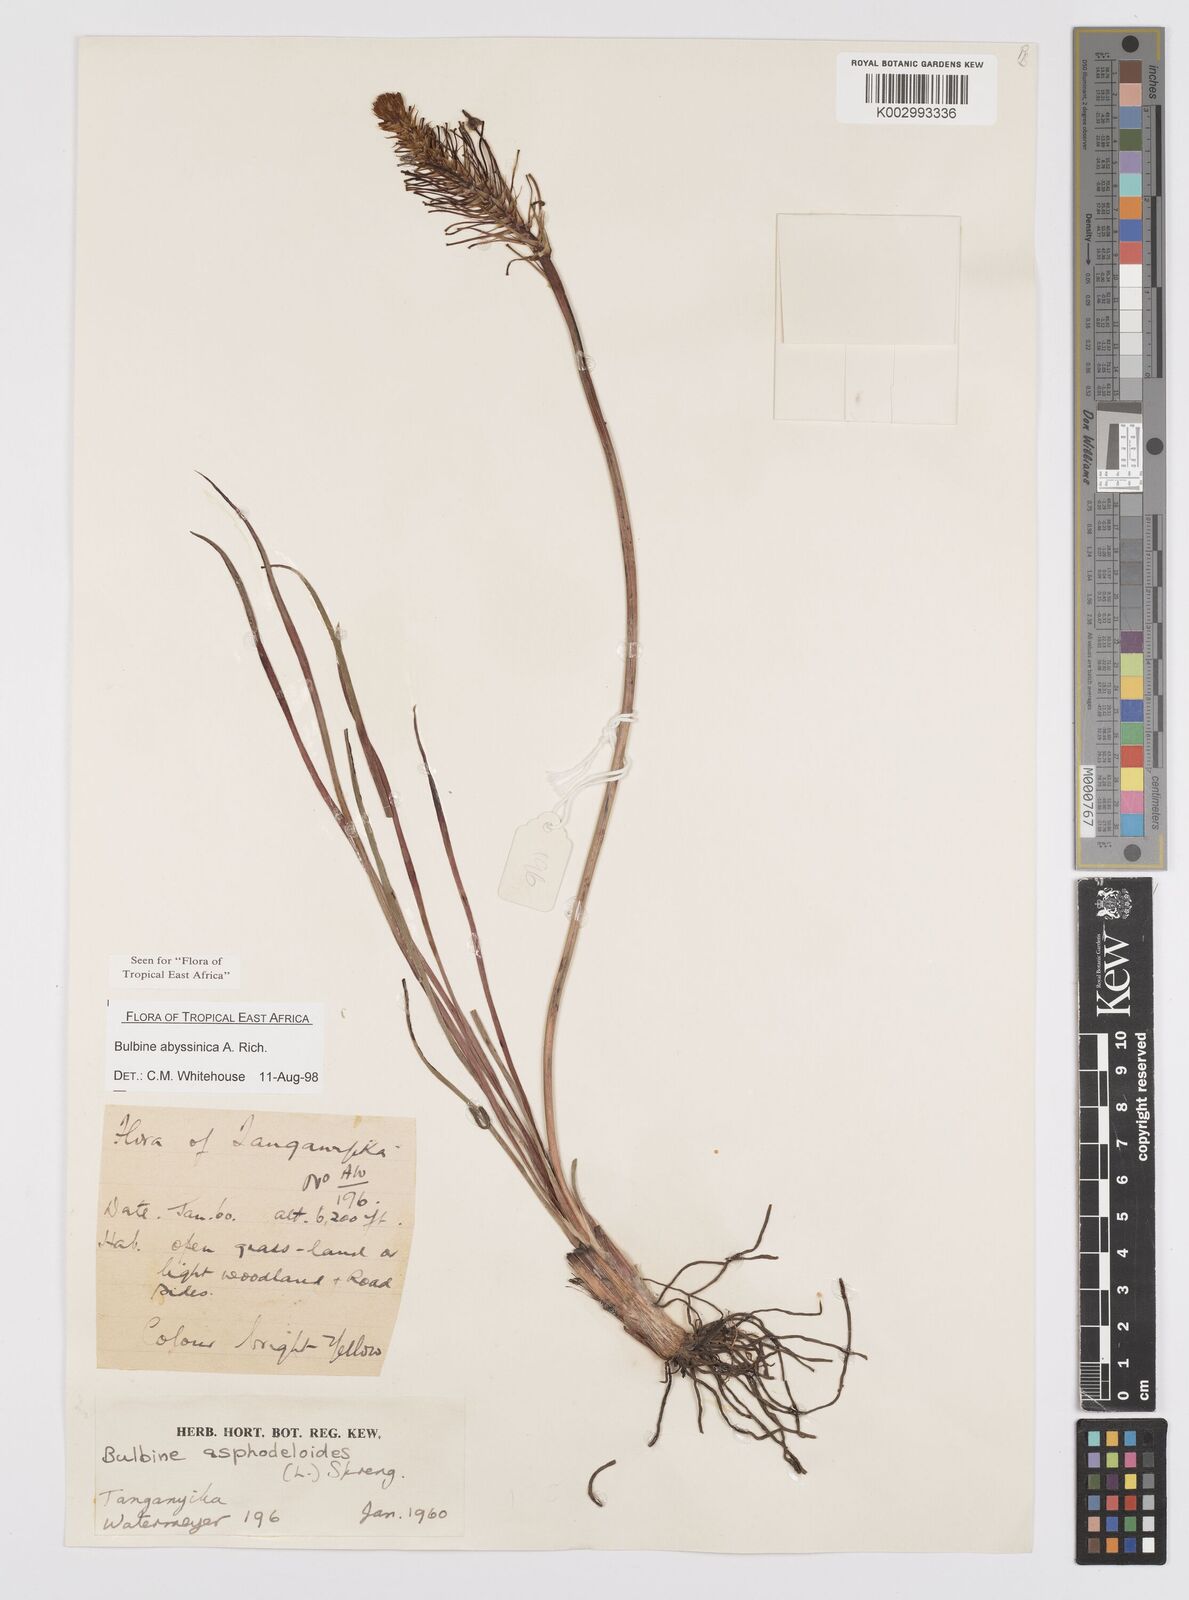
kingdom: Plantae
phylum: Tracheophyta
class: Liliopsida
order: Asparagales
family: Asphodelaceae
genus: Bulbine
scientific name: Bulbine abyssinica
